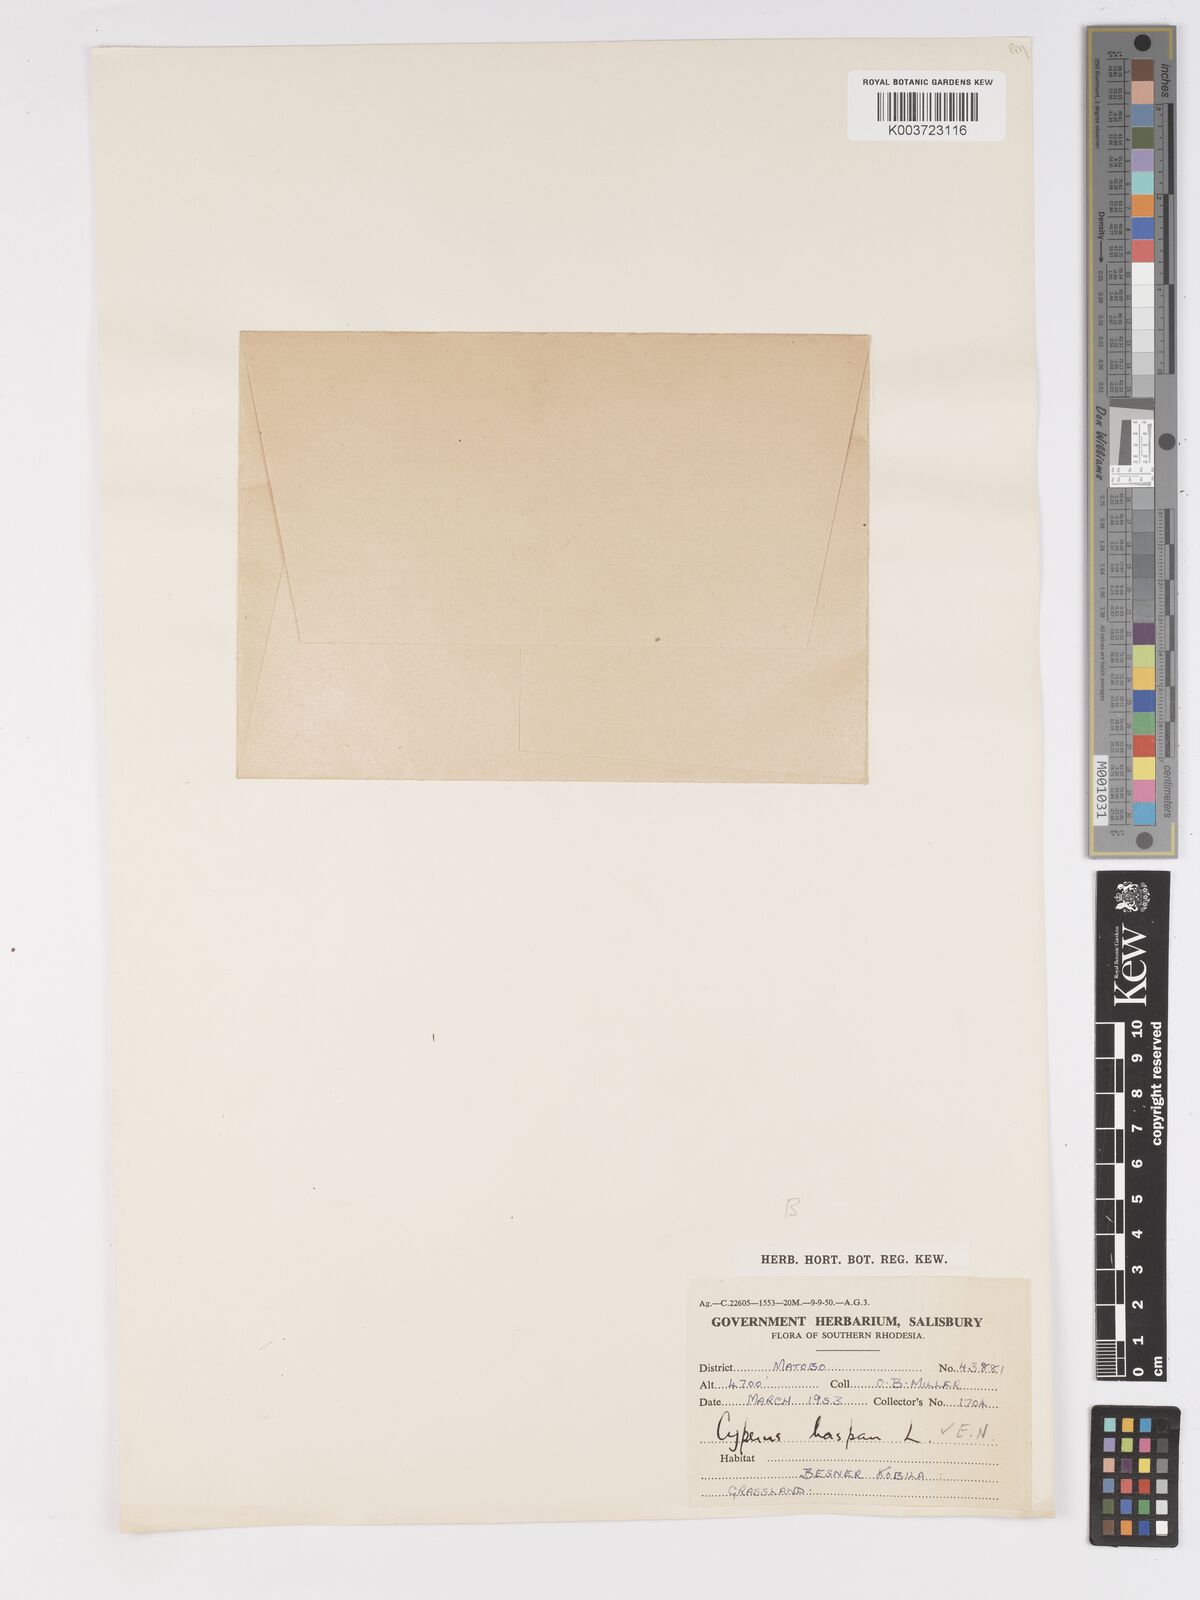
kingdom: Plantae
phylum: Tracheophyta
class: Liliopsida
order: Poales
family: Cyperaceae
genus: Cyperus
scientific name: Cyperus haspan
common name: Haspan flatsedge
